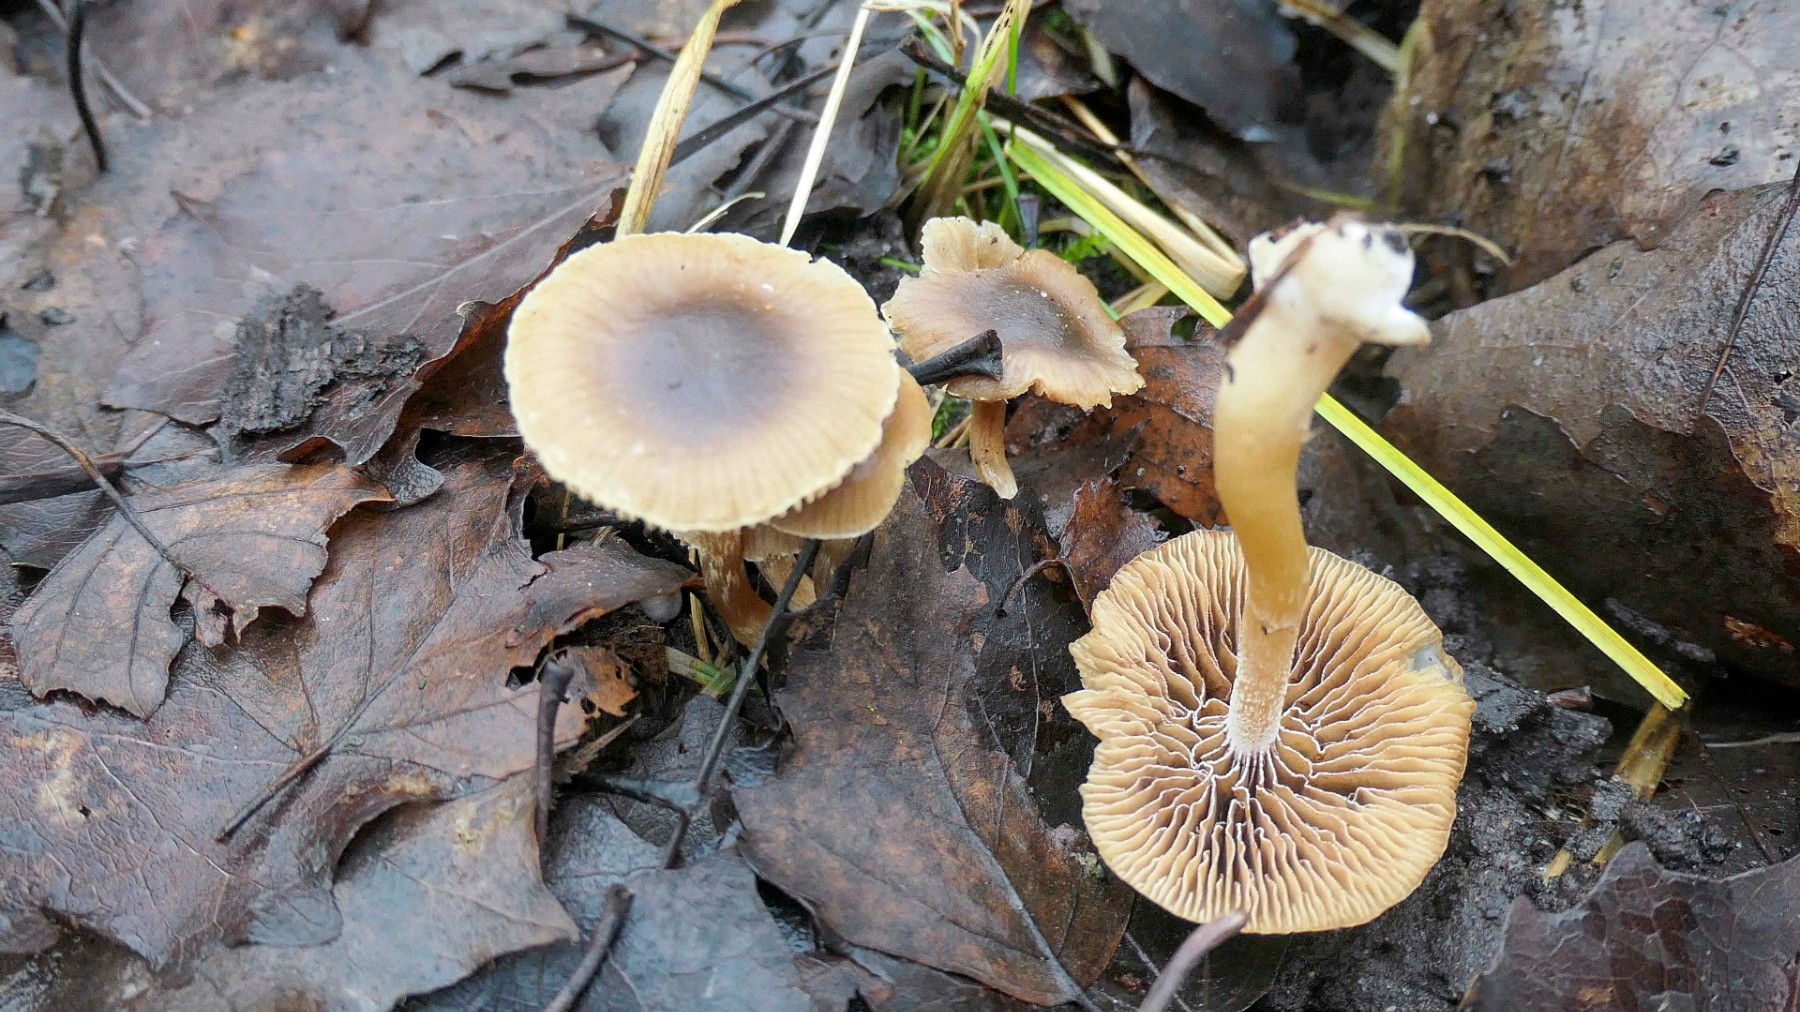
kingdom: Fungi
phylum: Basidiomycota
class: Agaricomycetes
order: Agaricales
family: Strophariaceae
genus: Meottomyces
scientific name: Meottomyces dissimulans
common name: smudsigbrun vinterskælhat
